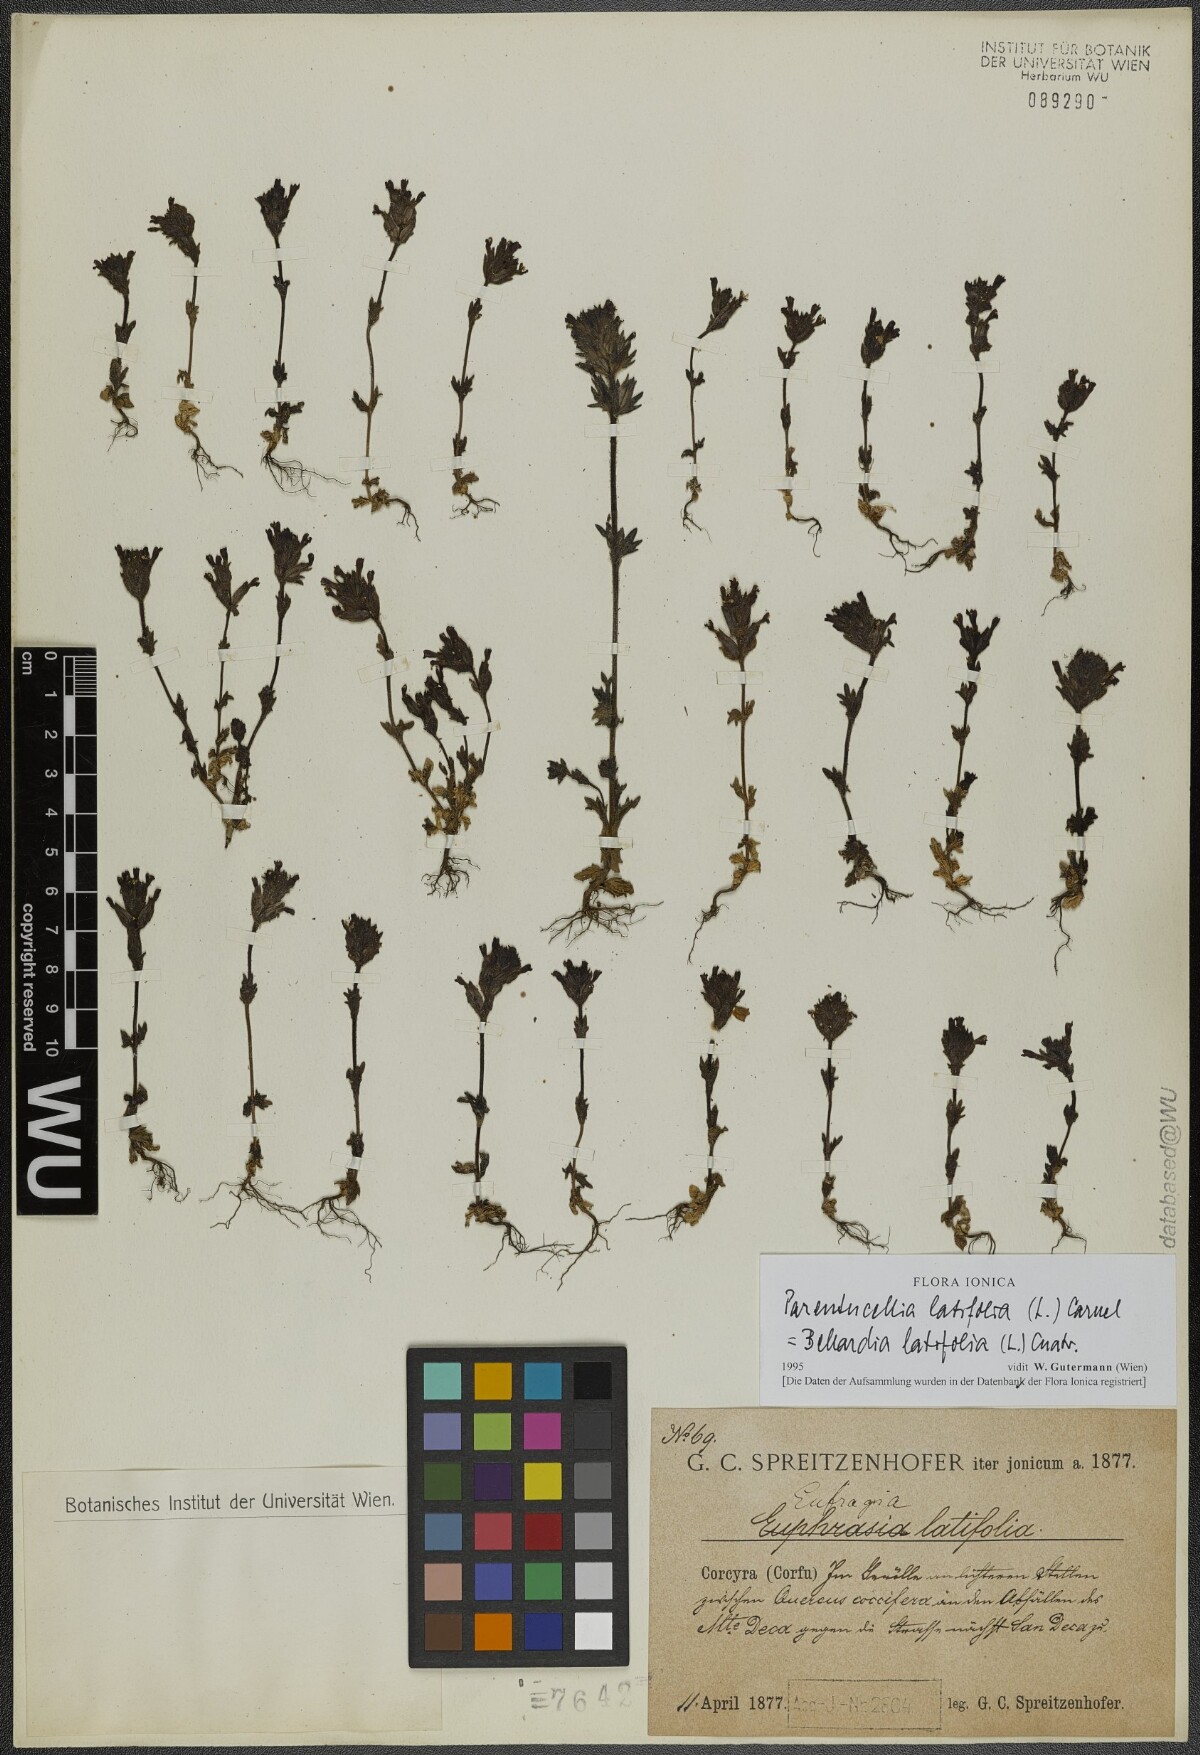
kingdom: Plantae
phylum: Tracheophyta
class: Magnoliopsida
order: Lamiales
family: Orobanchaceae
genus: Parentucellia
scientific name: Parentucellia latifolia
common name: Broadleaf glandweed
